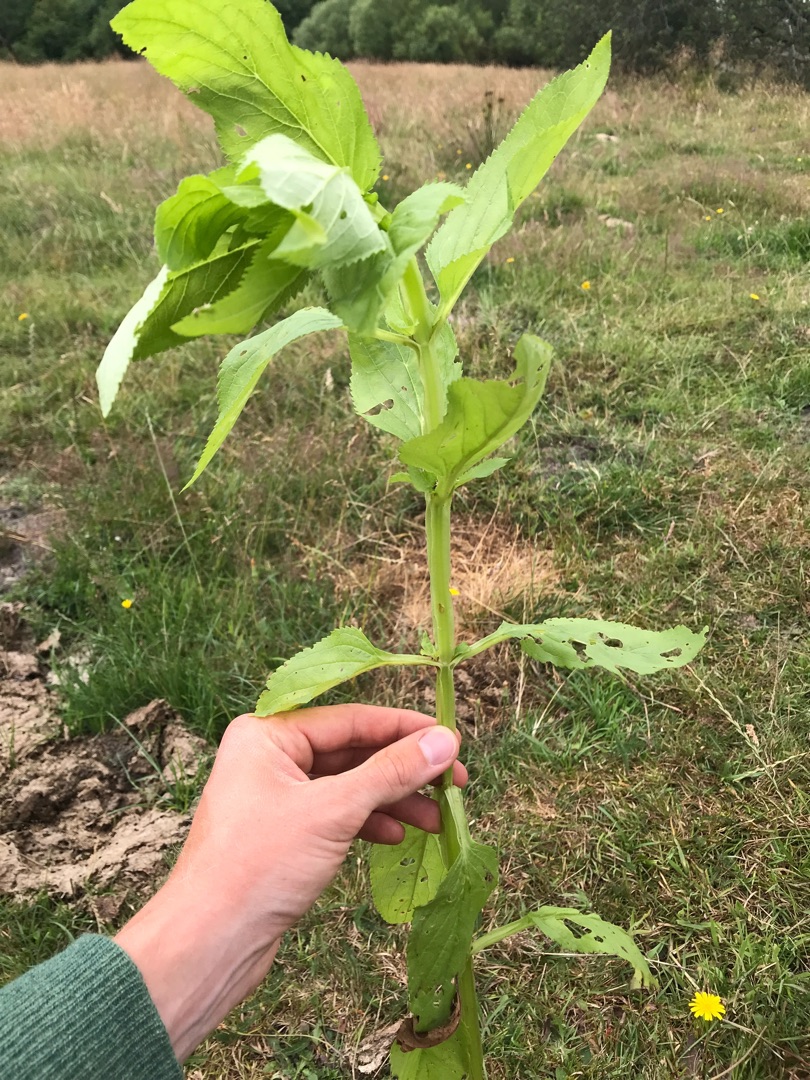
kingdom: Plantae
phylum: Tracheophyta
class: Magnoliopsida
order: Lamiales
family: Scrophulariaceae
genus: Scrophularia
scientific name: Scrophularia umbrosa
